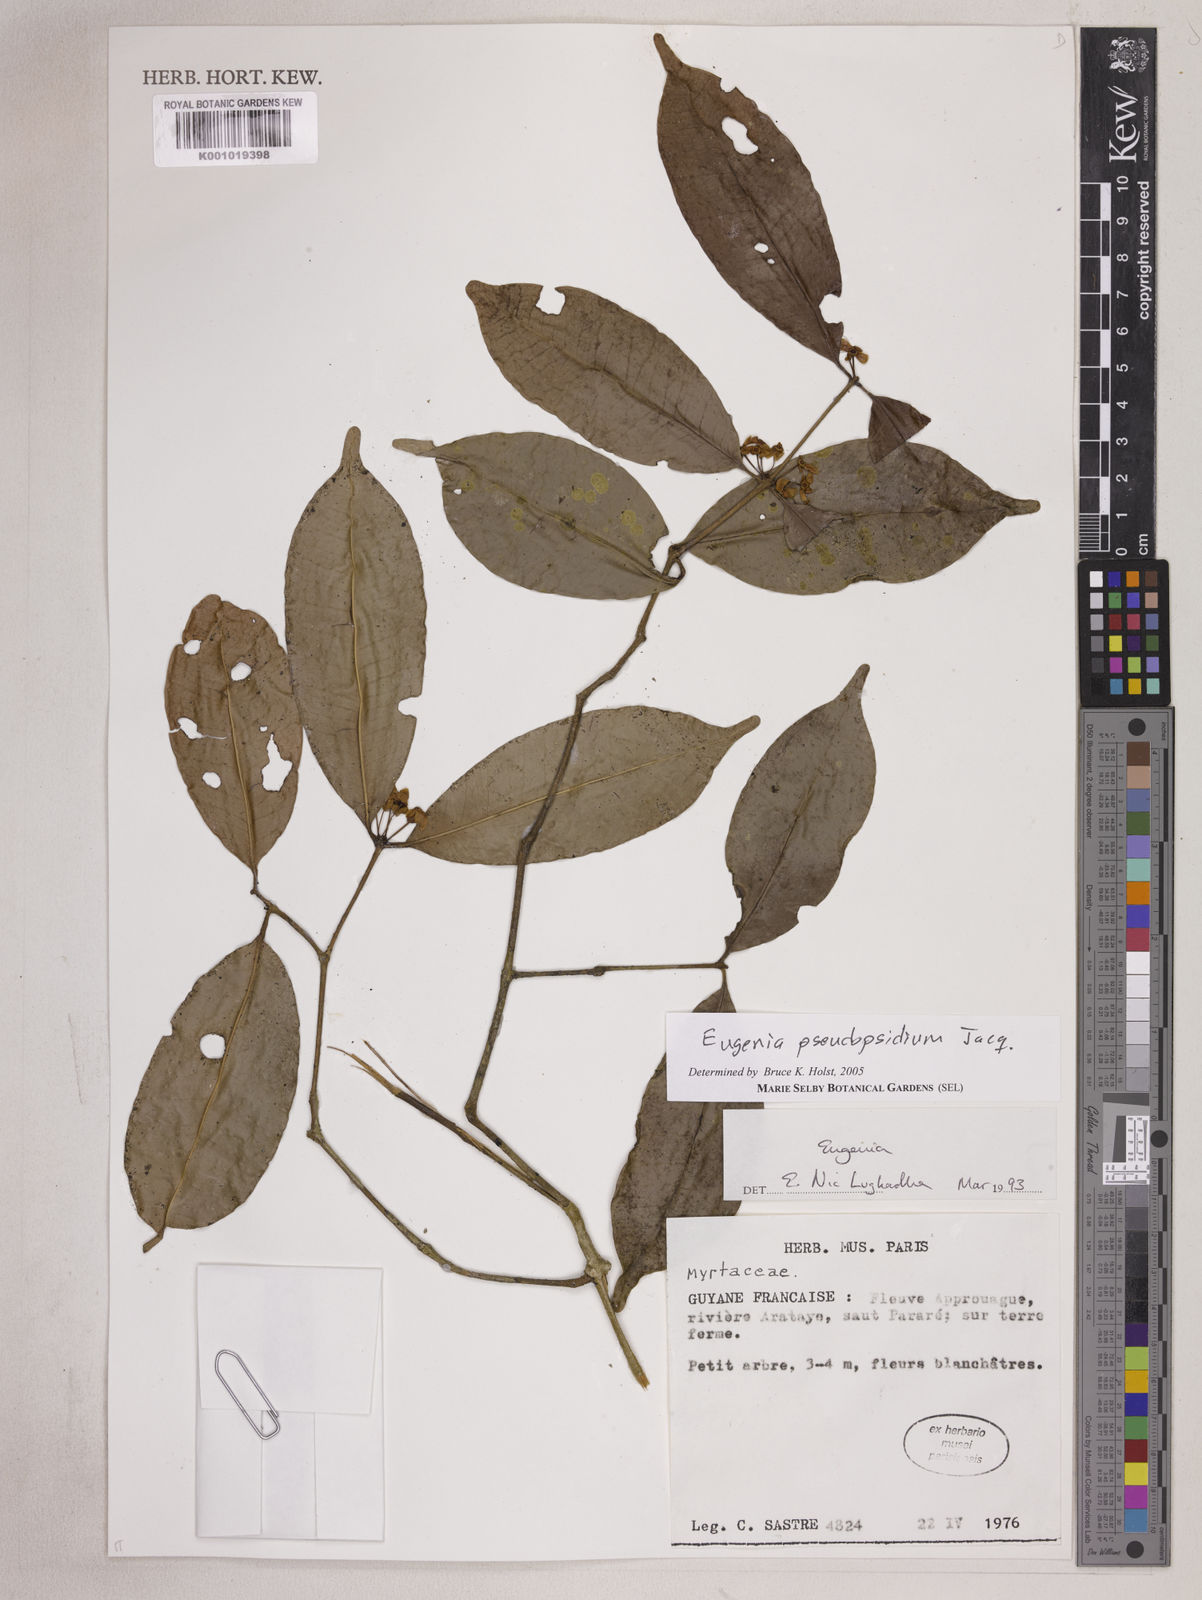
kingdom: Plantae
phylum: Tracheophyta
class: Magnoliopsida
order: Myrtales
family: Myrtaceae
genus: Eugenia
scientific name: Eugenia pseudopsidium
